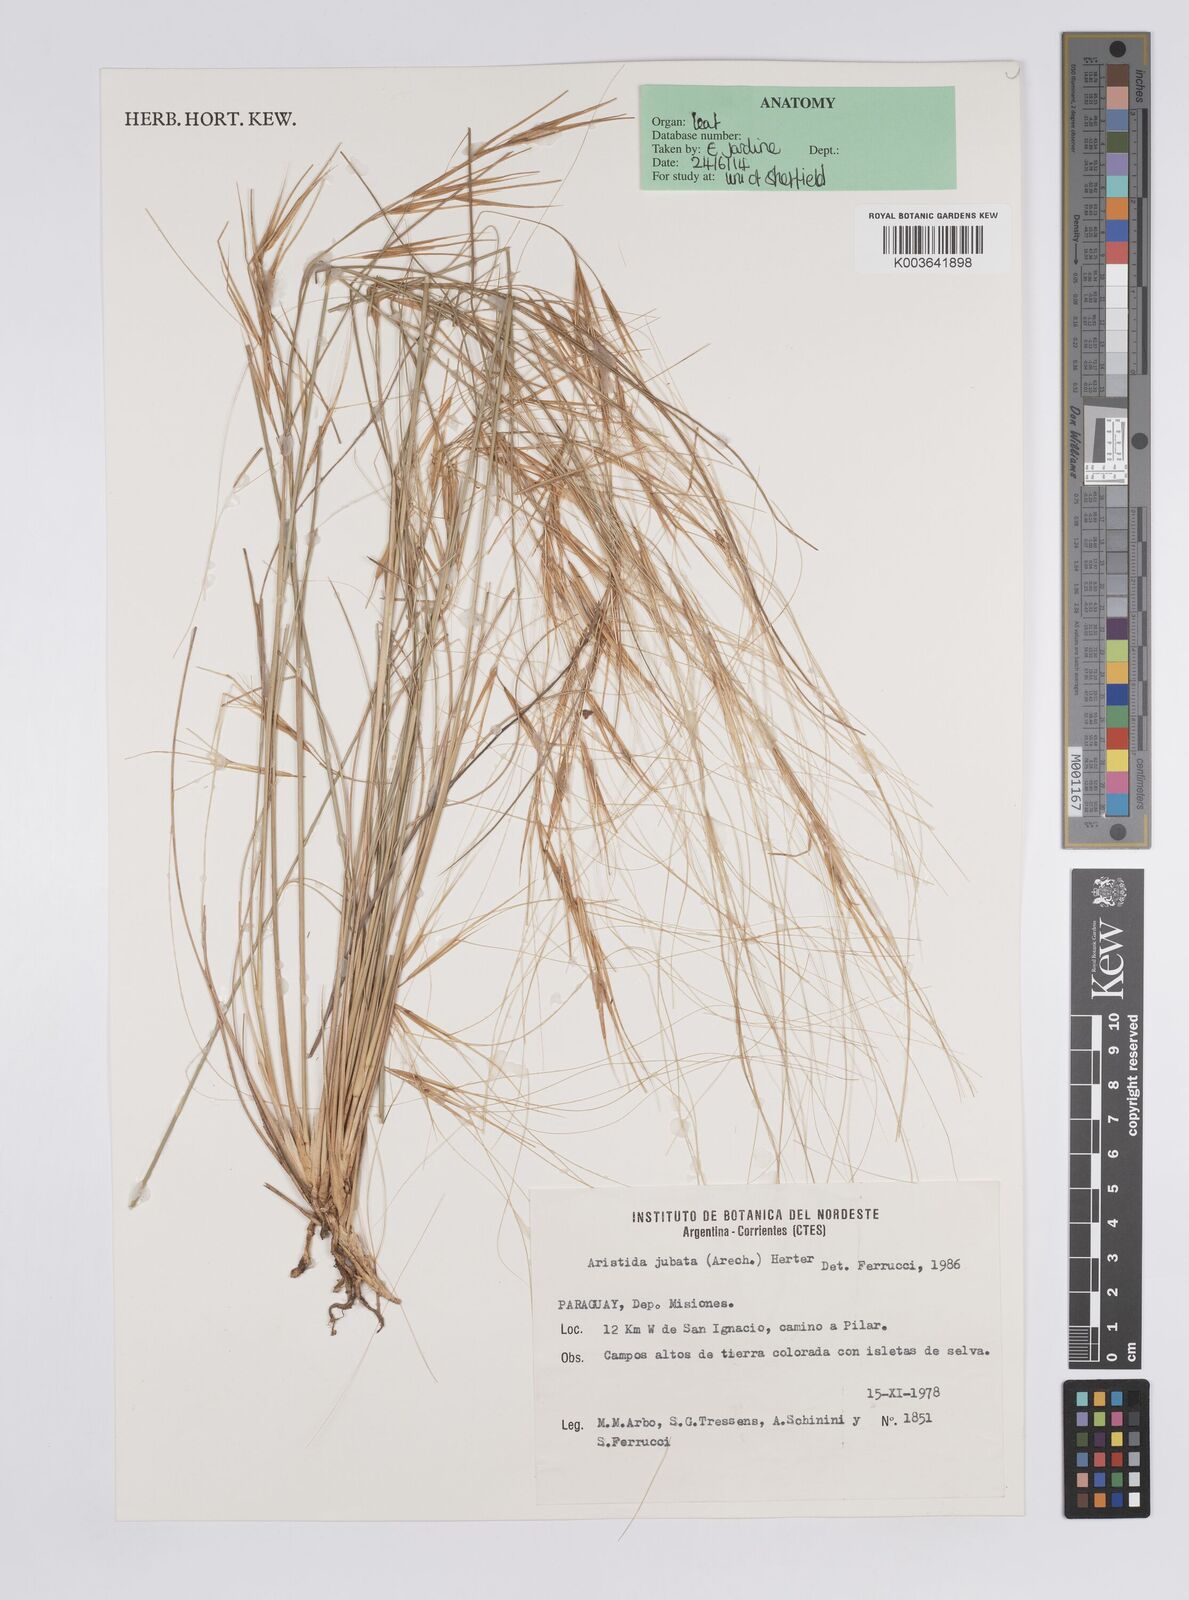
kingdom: Plantae
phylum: Tracheophyta
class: Liliopsida
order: Poales
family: Poaceae
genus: Aristida
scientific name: Aristida jubata
